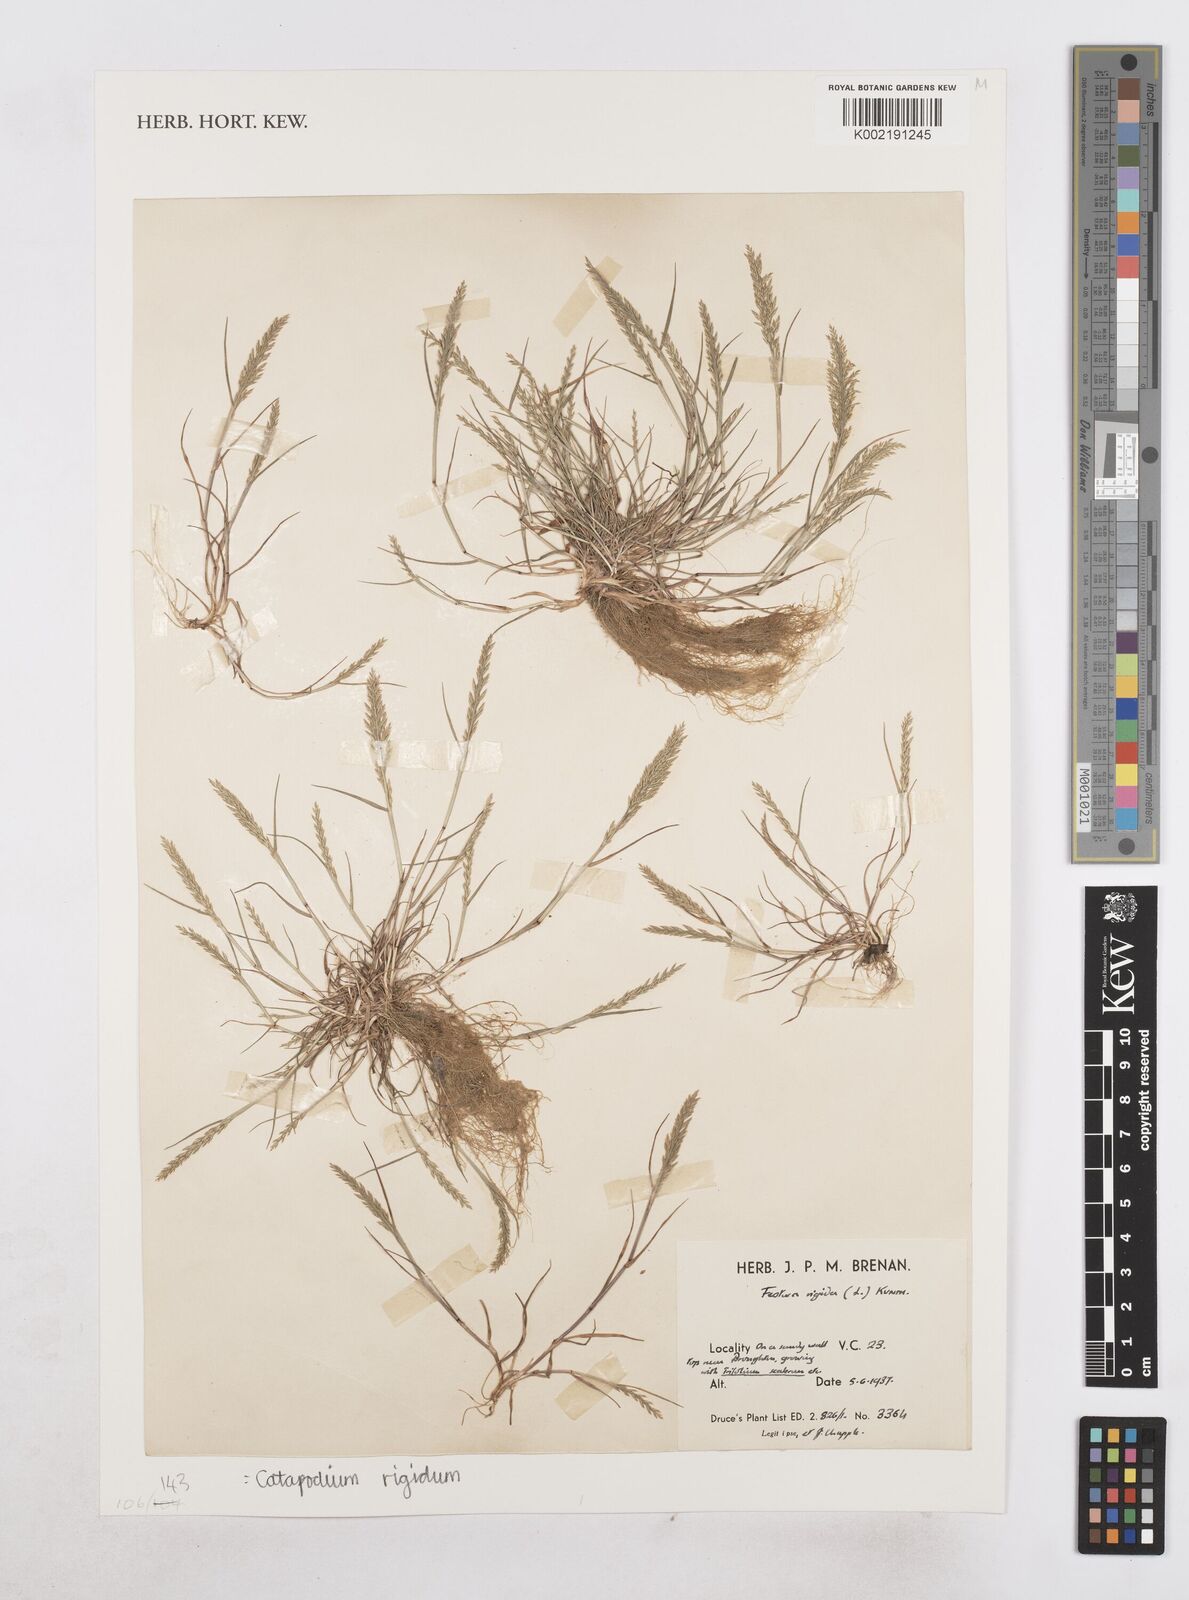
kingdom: Plantae
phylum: Tracheophyta
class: Liliopsida
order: Poales
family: Poaceae
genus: Catapodium
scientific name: Catapodium rigidum
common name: Fern-grass
